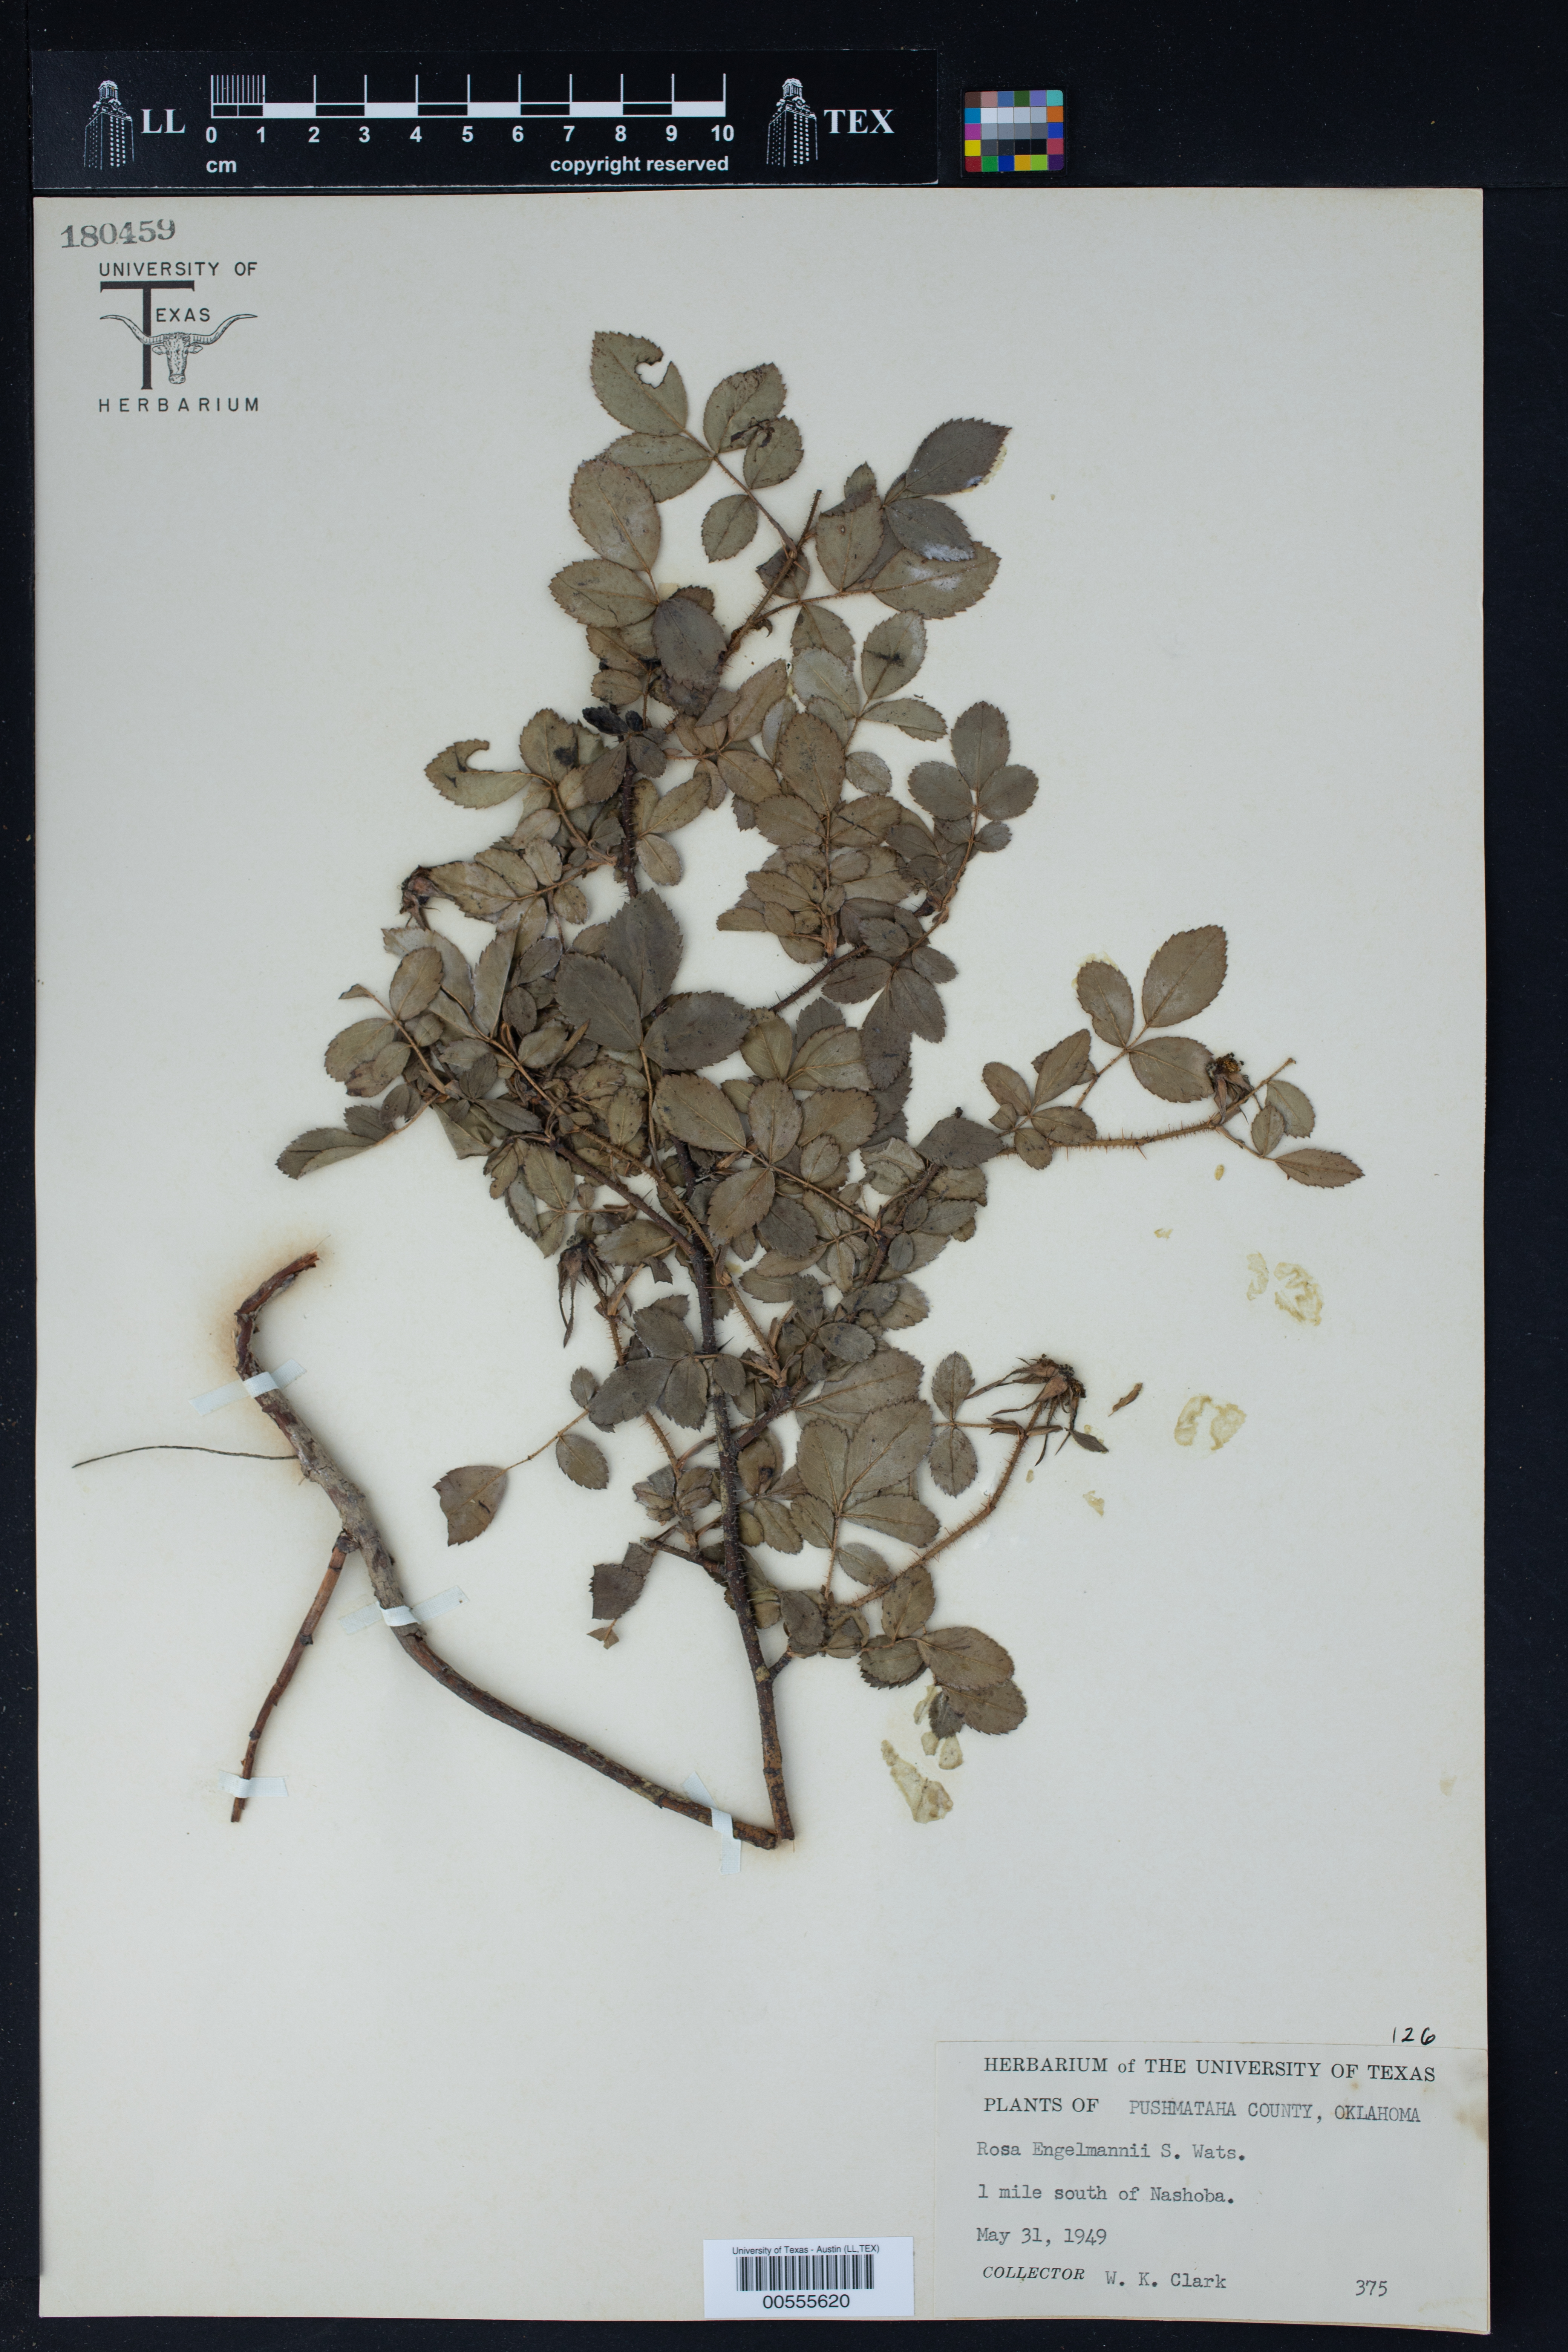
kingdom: Plantae
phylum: Tracheophyta
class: Magnoliopsida
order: Rosales
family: Rosaceae
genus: Rosa
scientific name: Rosa engelmannii
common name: Engelmann's rose
